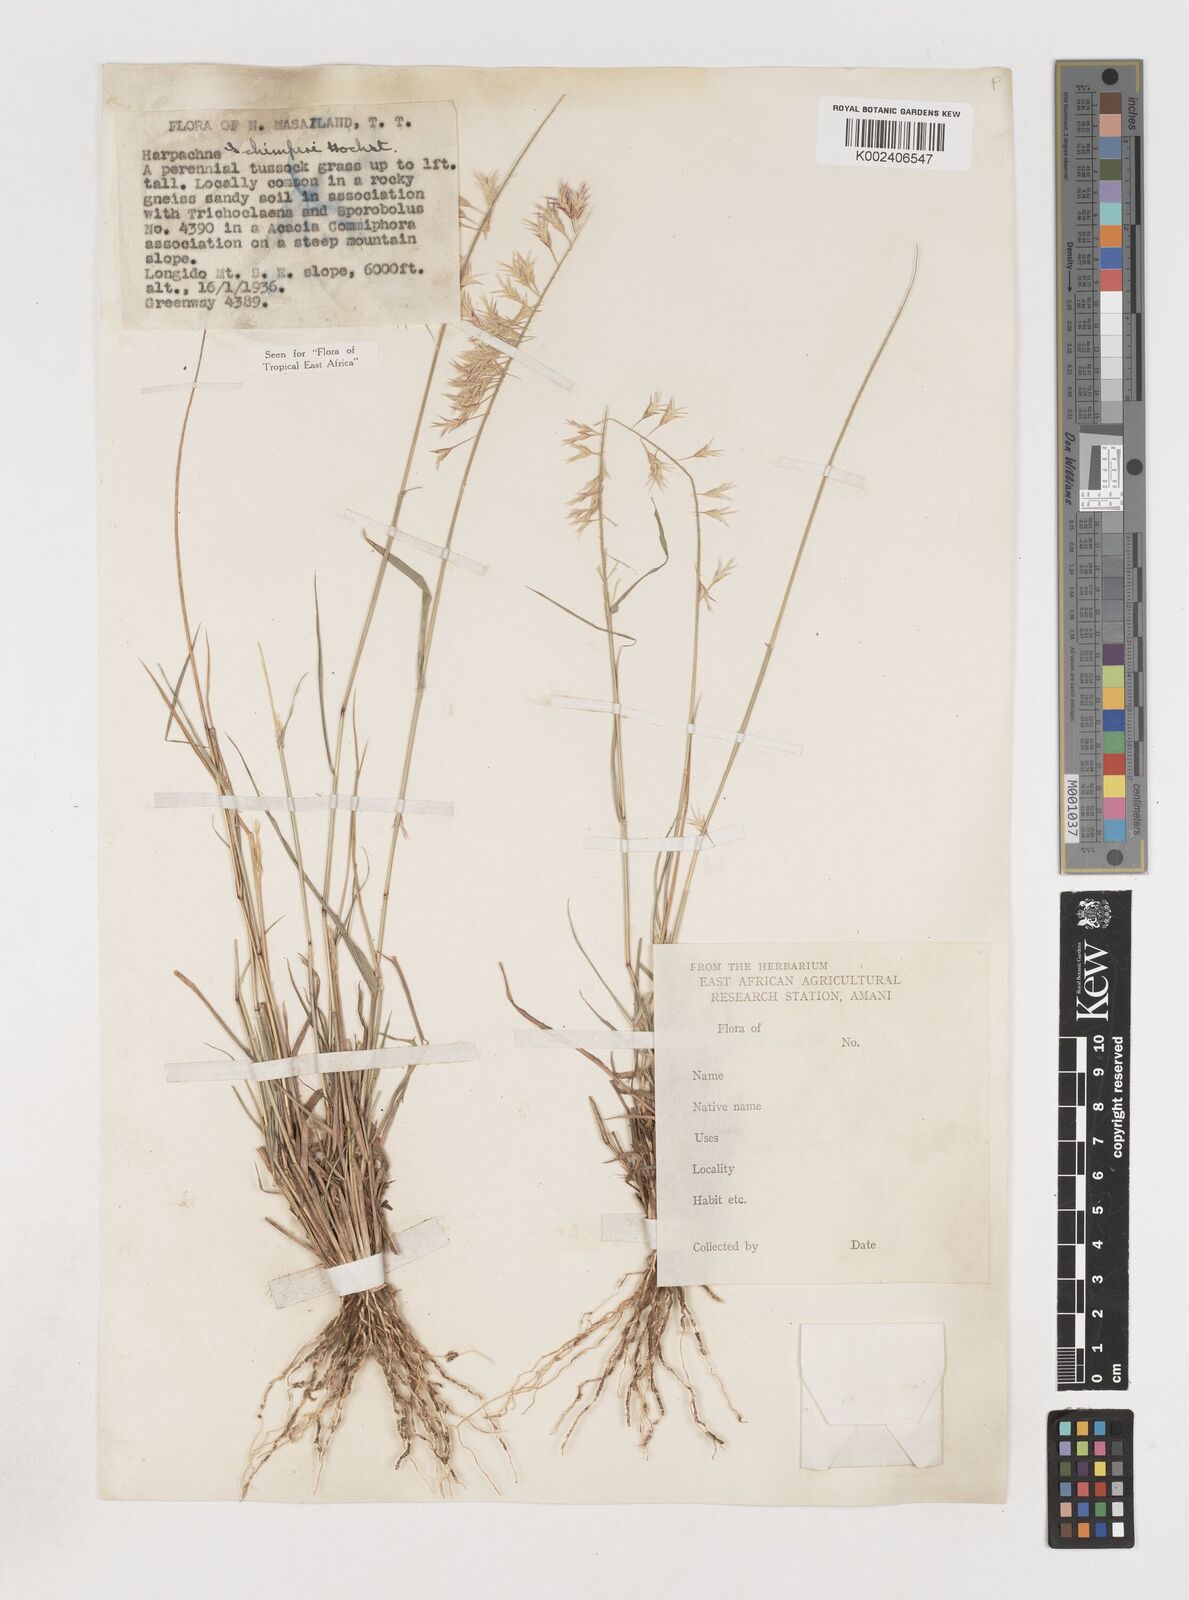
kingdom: Plantae
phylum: Tracheophyta
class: Liliopsida
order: Poales
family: Poaceae
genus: Harpachne
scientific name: Harpachne schimperi
